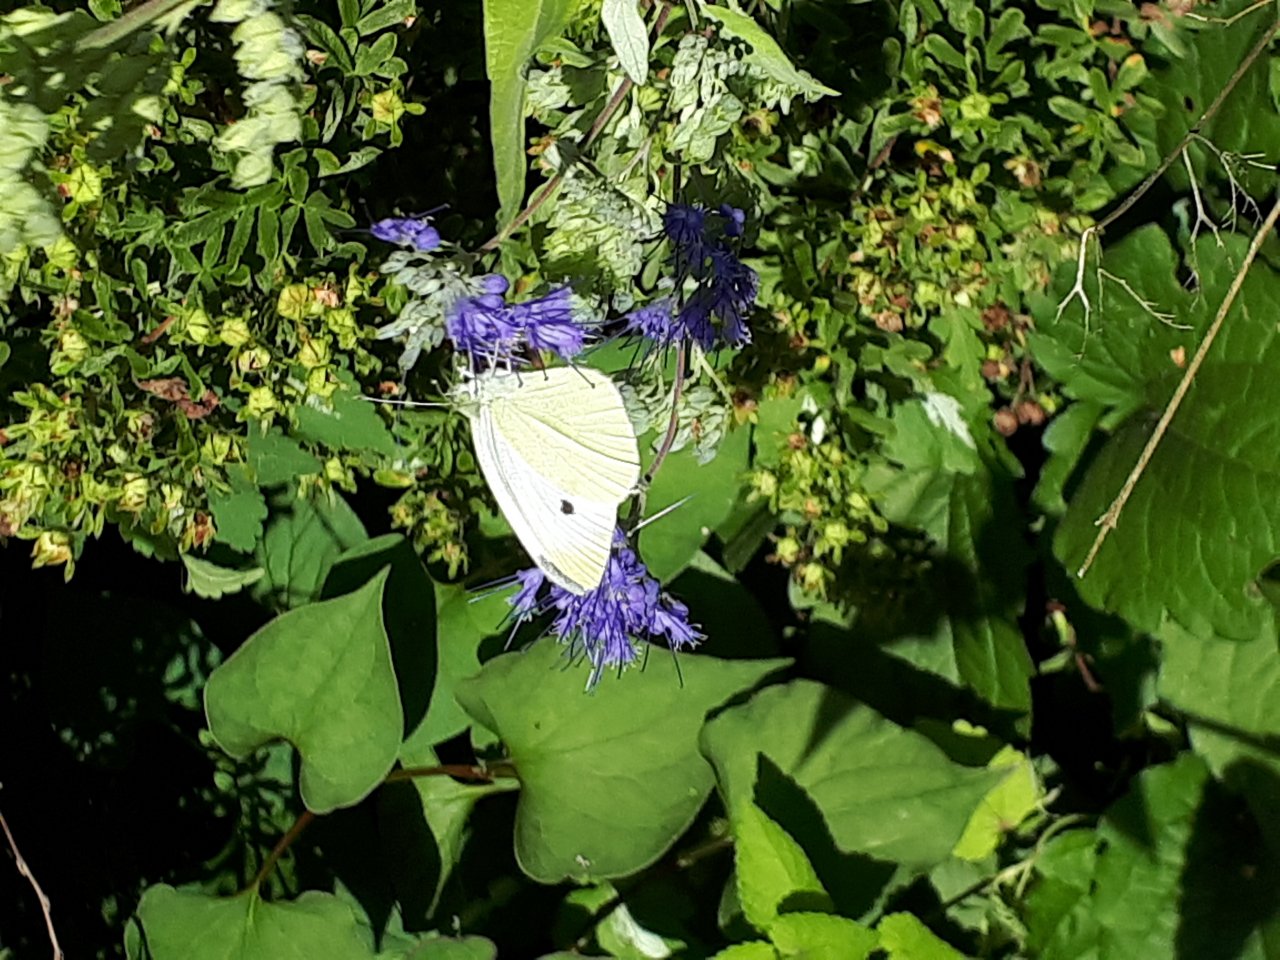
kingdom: Animalia
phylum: Arthropoda
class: Insecta
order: Lepidoptera
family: Pieridae
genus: Pieris
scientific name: Pieris rapae
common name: Cabbage White
